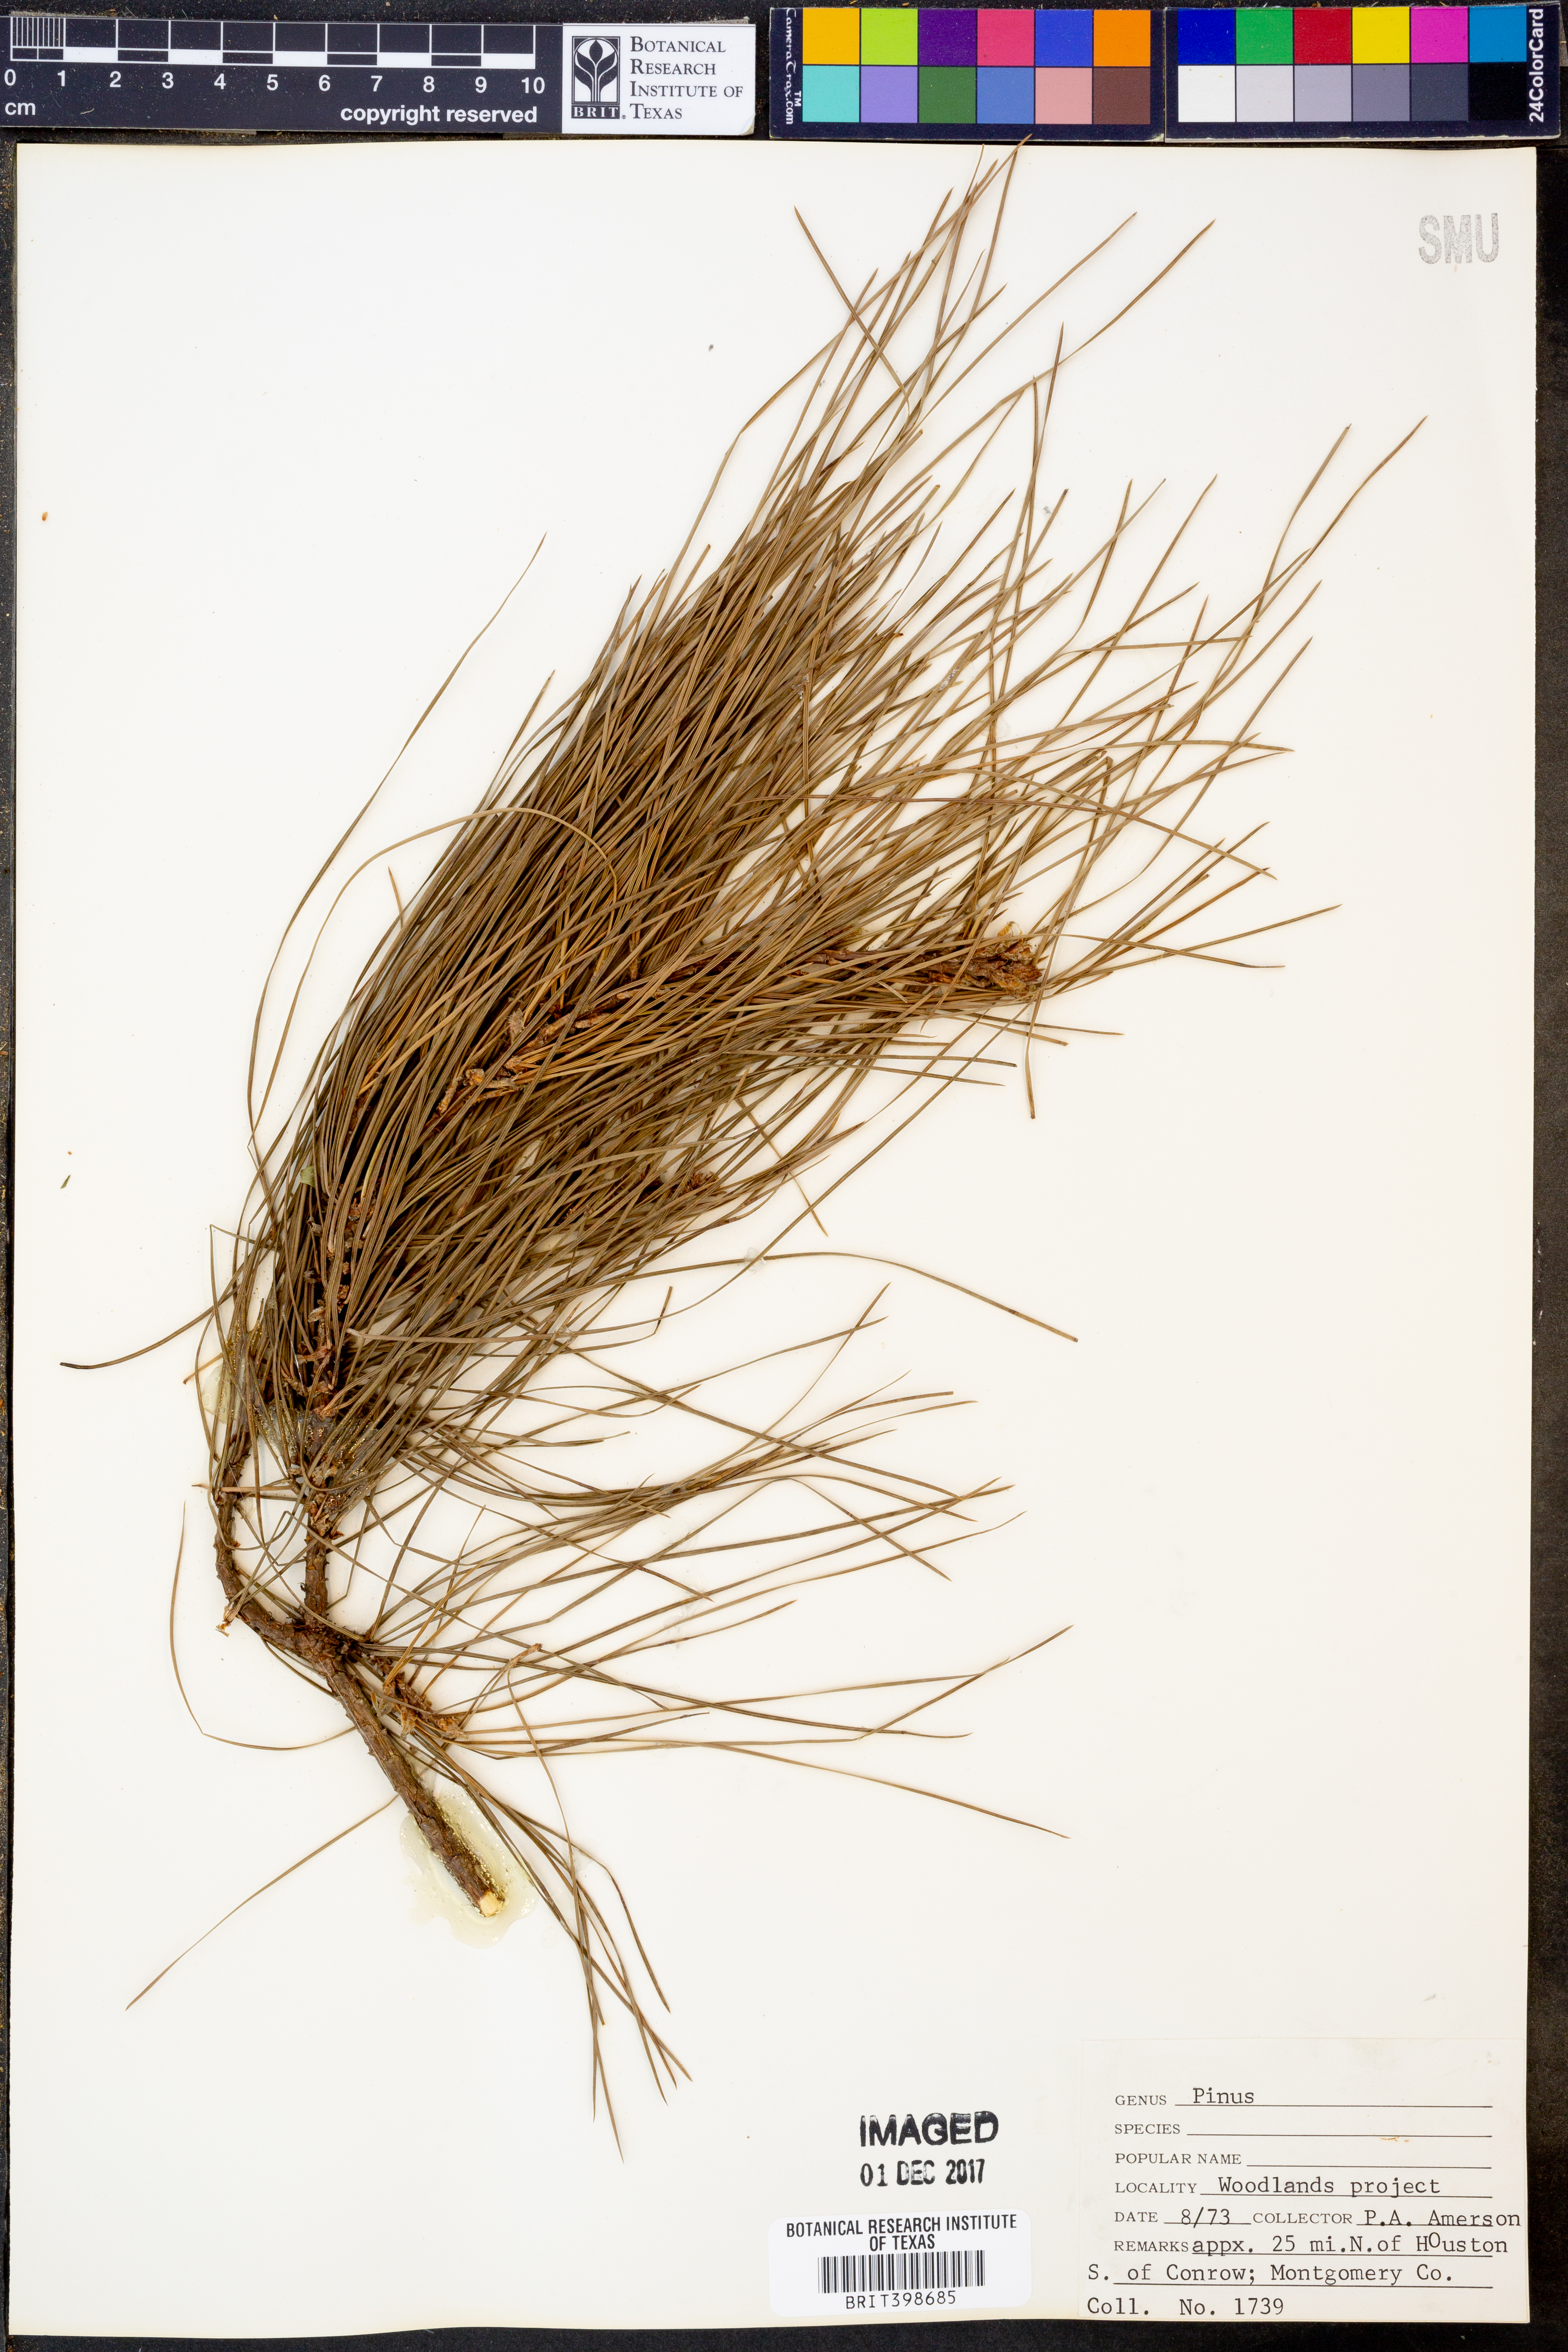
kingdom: Plantae
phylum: Tracheophyta
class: Pinopsida
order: Pinales
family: Pinaceae
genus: Pinus
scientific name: Pinus
